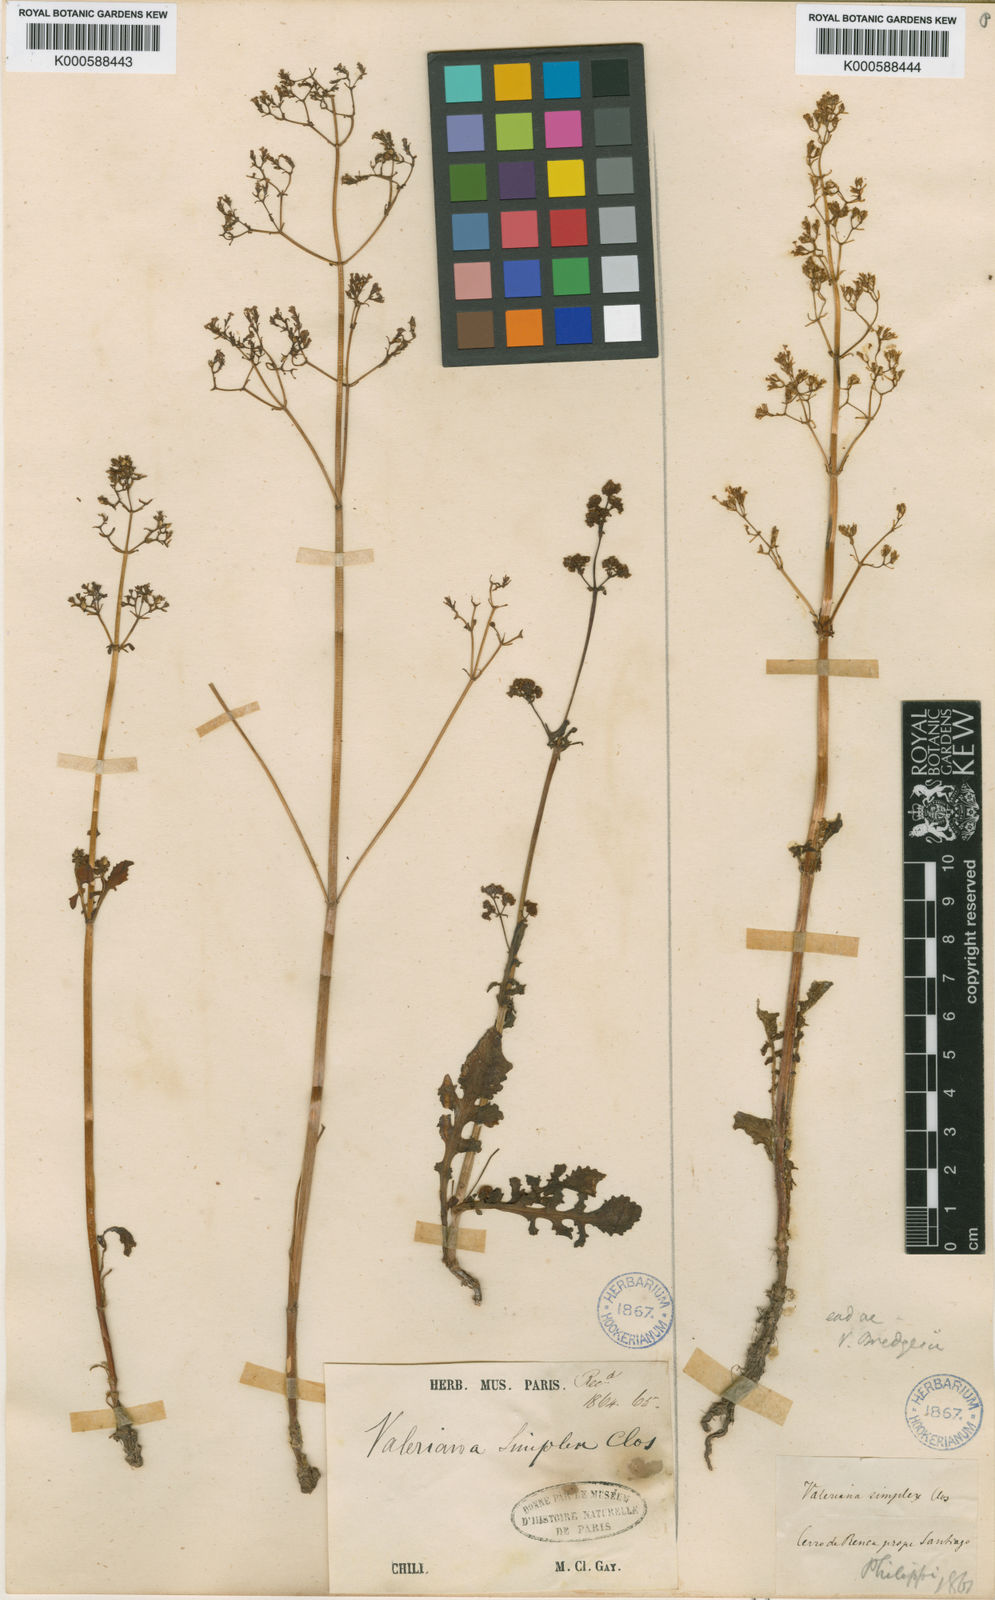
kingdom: Plantae
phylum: Tracheophyta
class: Magnoliopsida
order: Dipsacales
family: Caprifoliaceae
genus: Valeriana
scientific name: Valeriana bridgesii
